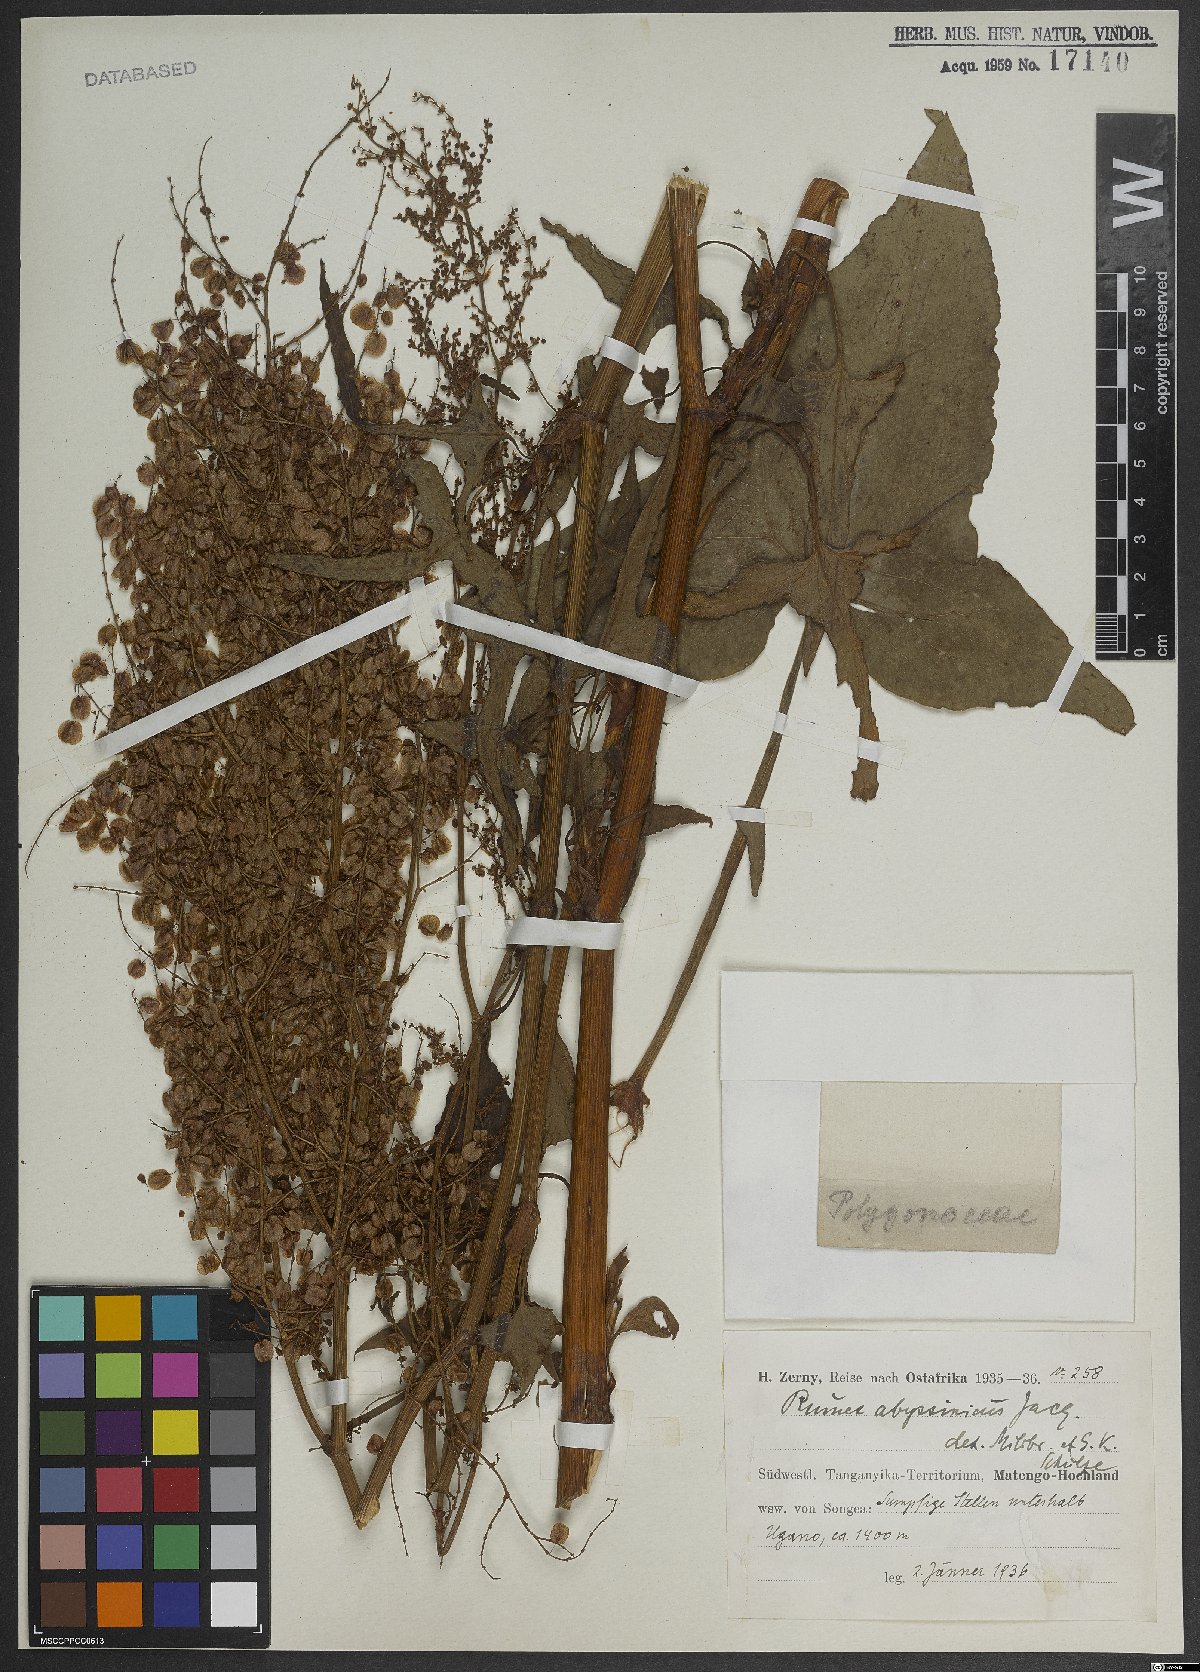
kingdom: Plantae
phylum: Tracheophyta
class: Magnoliopsida
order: Caryophyllales
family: Polygonaceae
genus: Rumex
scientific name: Rumex abyssinicus
